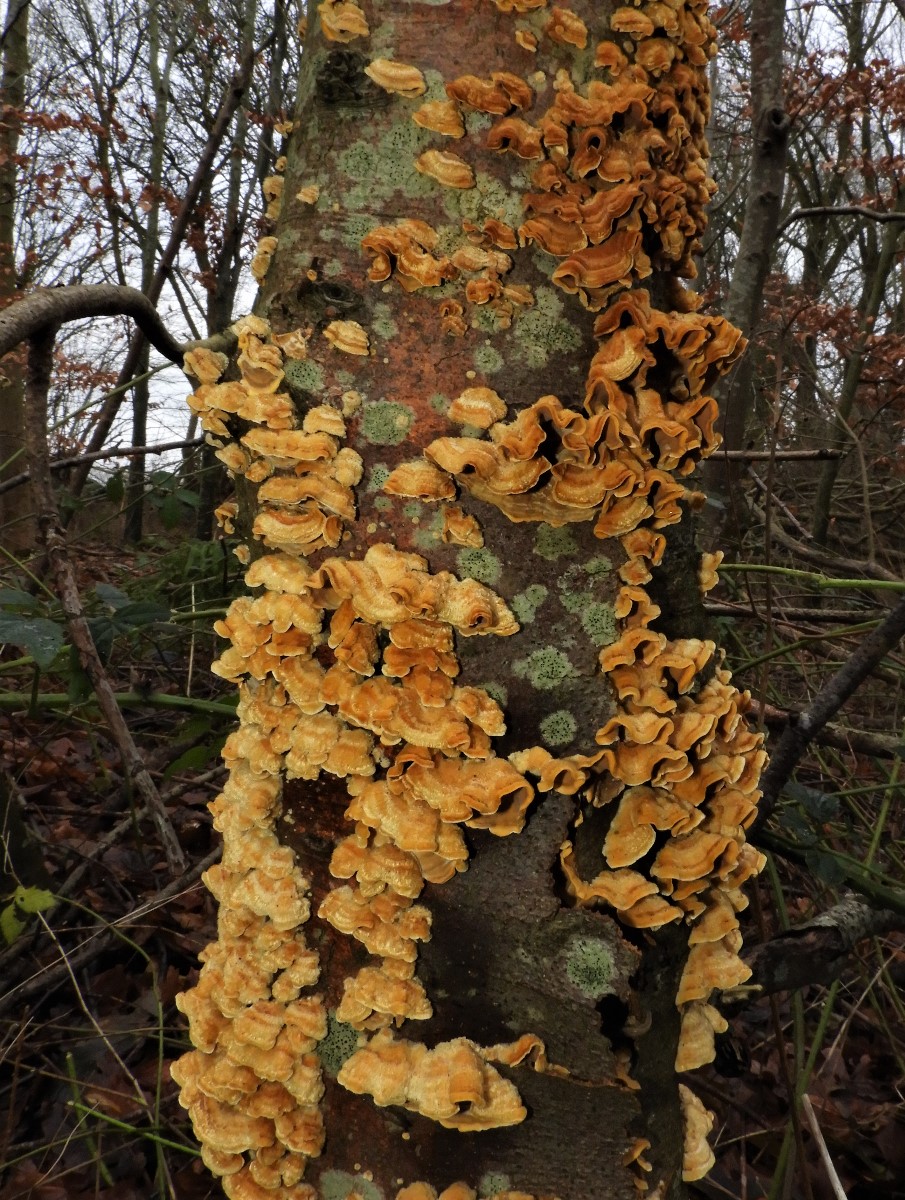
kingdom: Fungi
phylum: Basidiomycota
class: Agaricomycetes
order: Russulales
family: Stereaceae
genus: Stereum
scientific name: Stereum hirsutum
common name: håret lædersvamp
